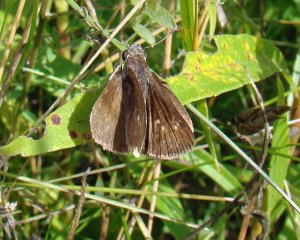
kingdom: Animalia
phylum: Arthropoda
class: Insecta
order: Lepidoptera
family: Hesperiidae
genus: Euphyes
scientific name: Euphyes vestris
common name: Dun Skipper
